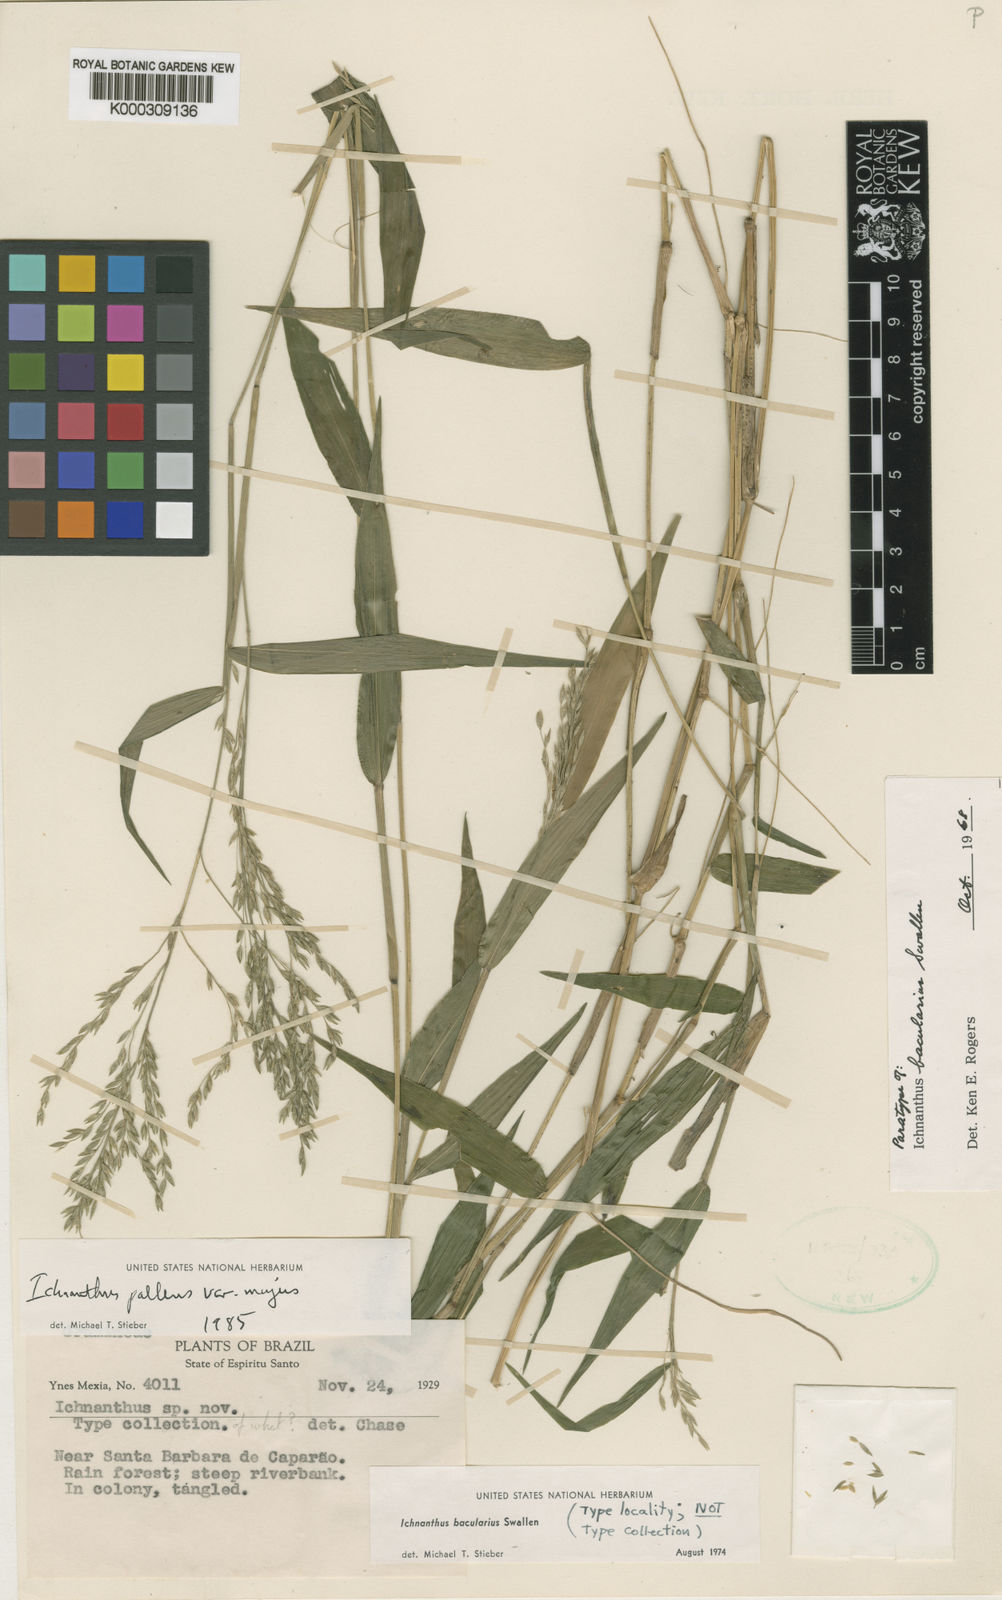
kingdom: Plantae
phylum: Tracheophyta
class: Liliopsida
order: Poales
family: Poaceae
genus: Ichnanthus
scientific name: Ichnanthus pallens
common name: Water grass
